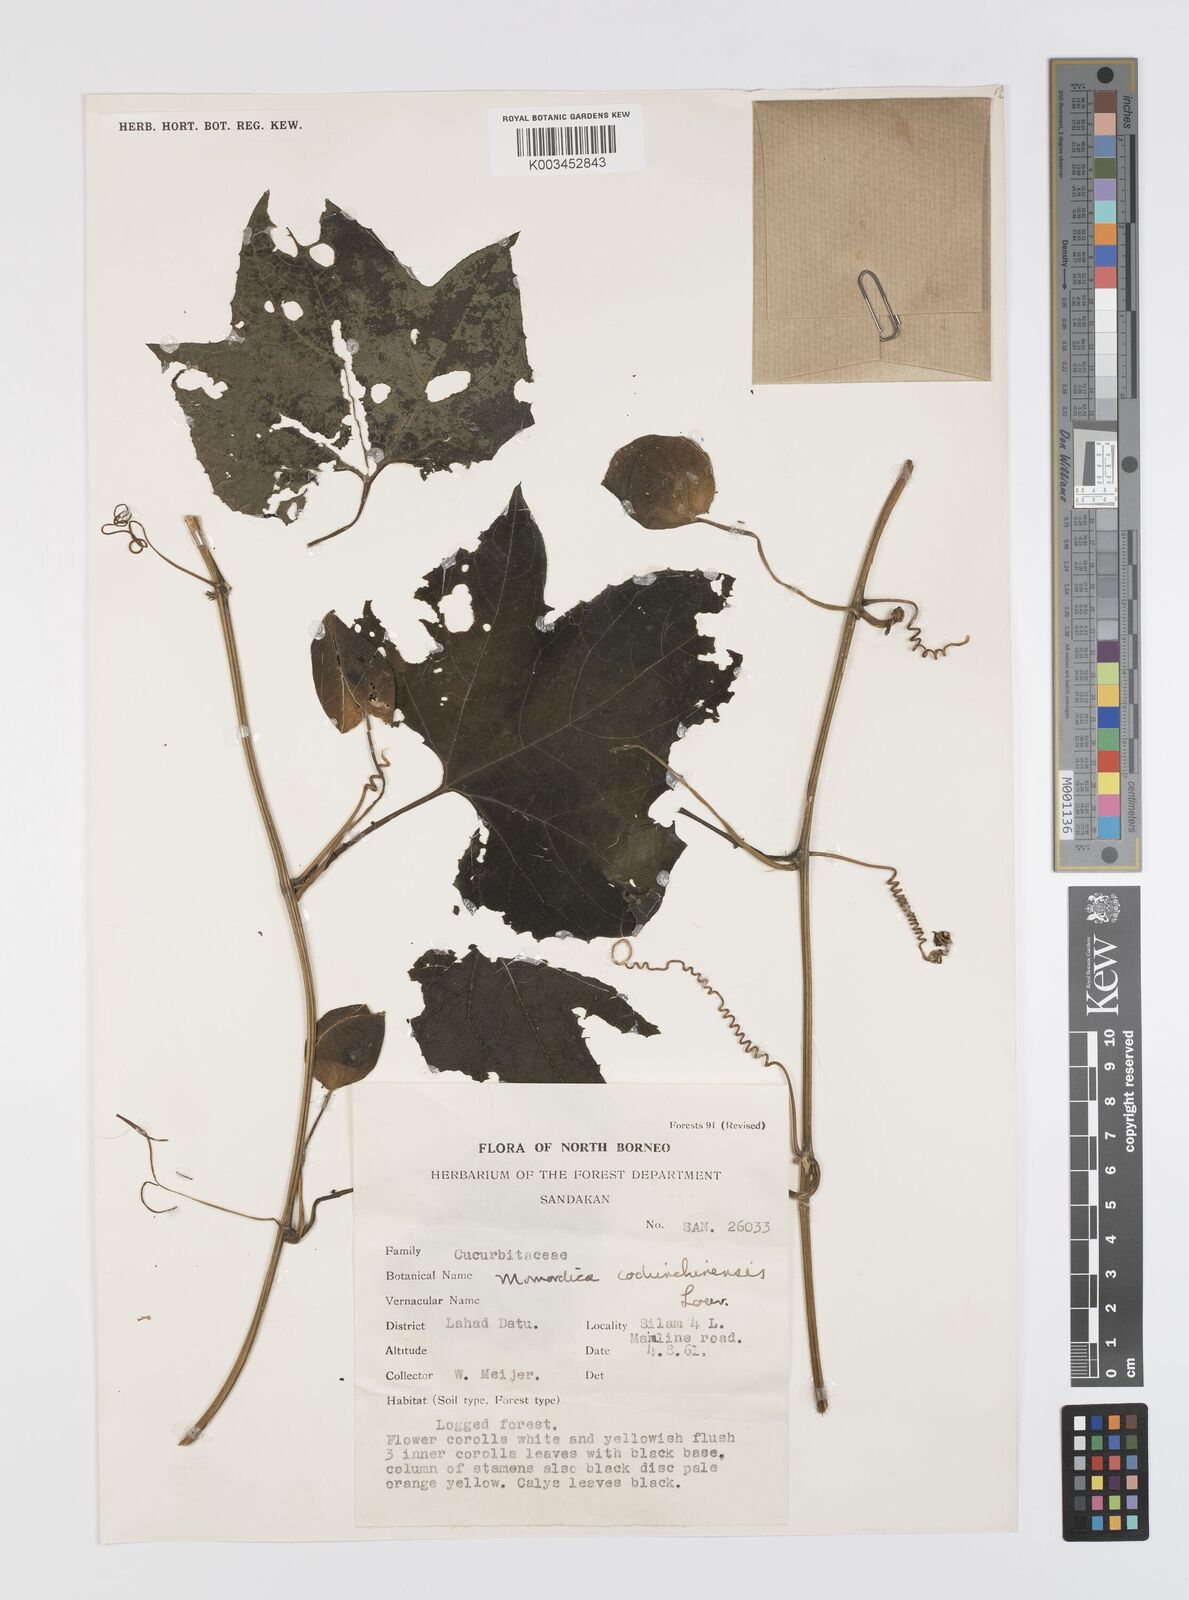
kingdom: Plantae
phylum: Tracheophyta
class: Magnoliopsida
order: Cucurbitales
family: Cucurbitaceae
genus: Momordica
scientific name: Momordica cochinchinensis
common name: Chinese bitter-cucumber
